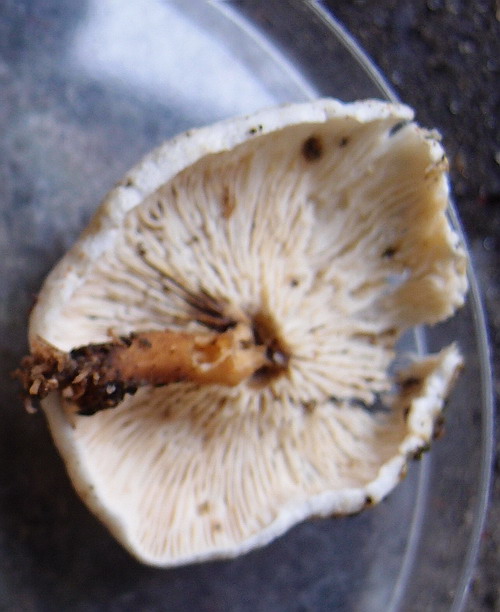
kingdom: Fungi
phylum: Basidiomycota
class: Agaricomycetes
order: Boletales
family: Hygrophoropsidaceae
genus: Hygrophoropsis
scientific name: Hygrophoropsis pallida
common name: bleg orangekantarel
